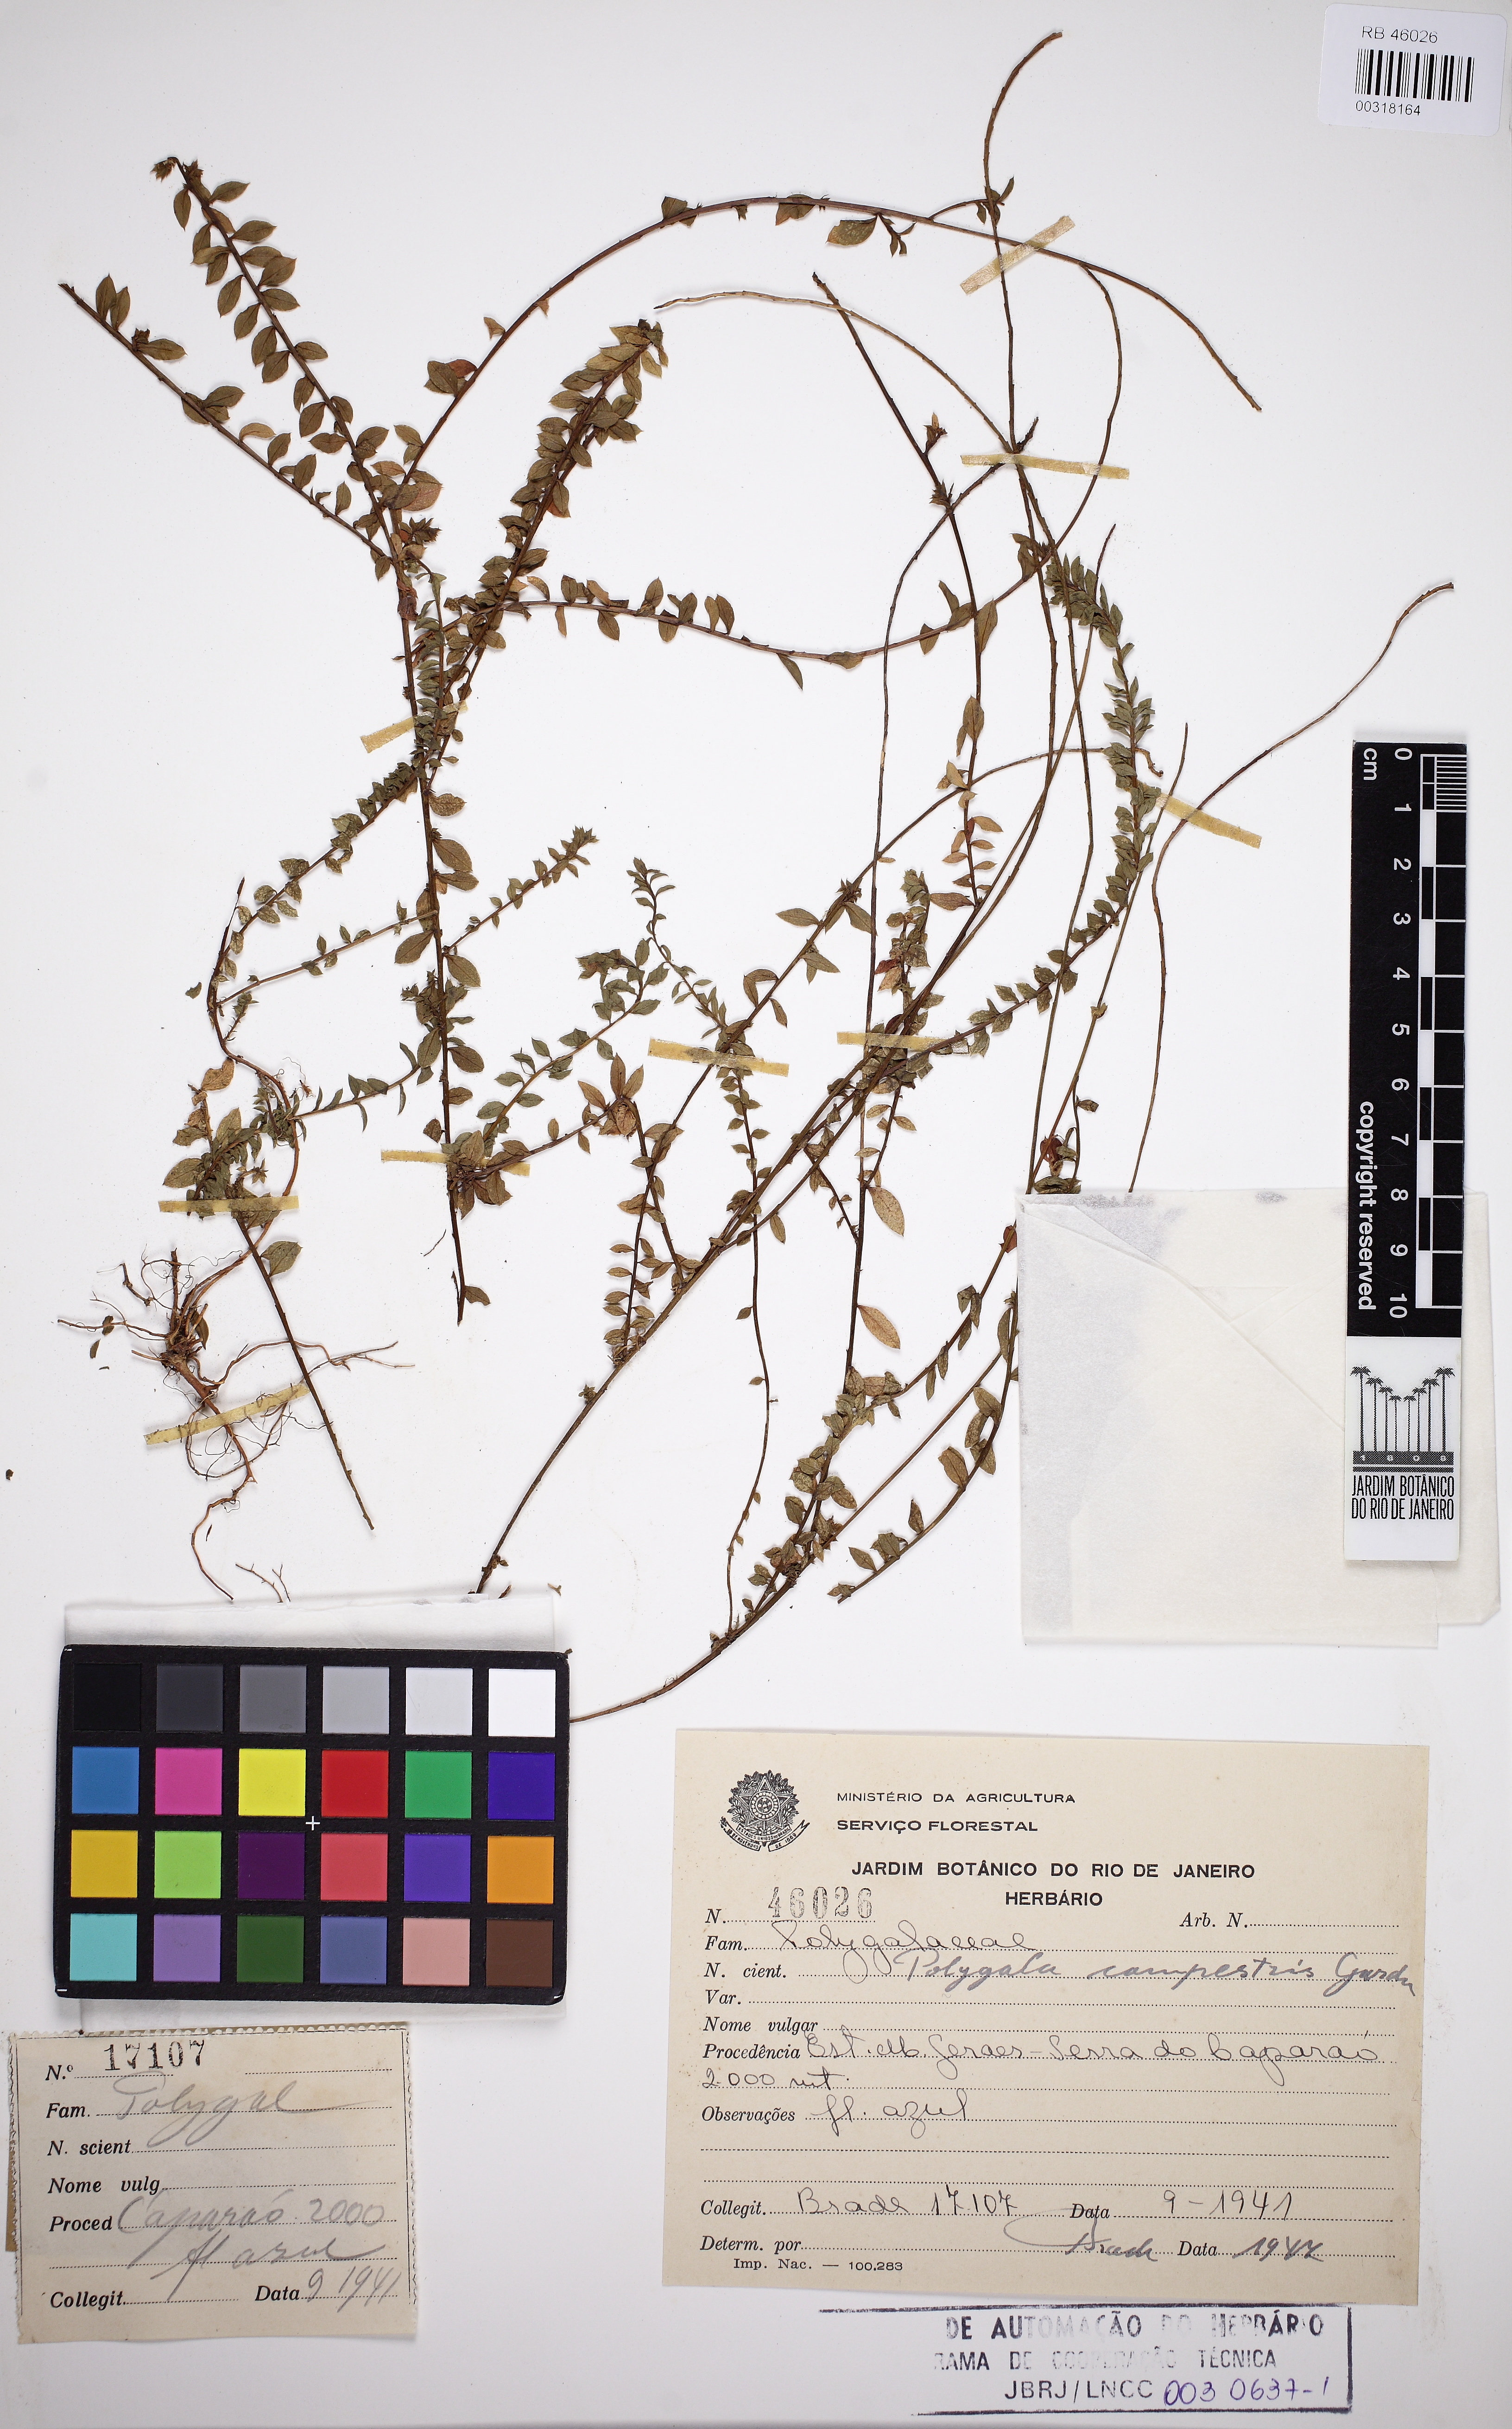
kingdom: Plantae
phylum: Tracheophyta
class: Magnoliopsida
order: Fabales
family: Polygalaceae
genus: Polygala
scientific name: Polygala campestris
